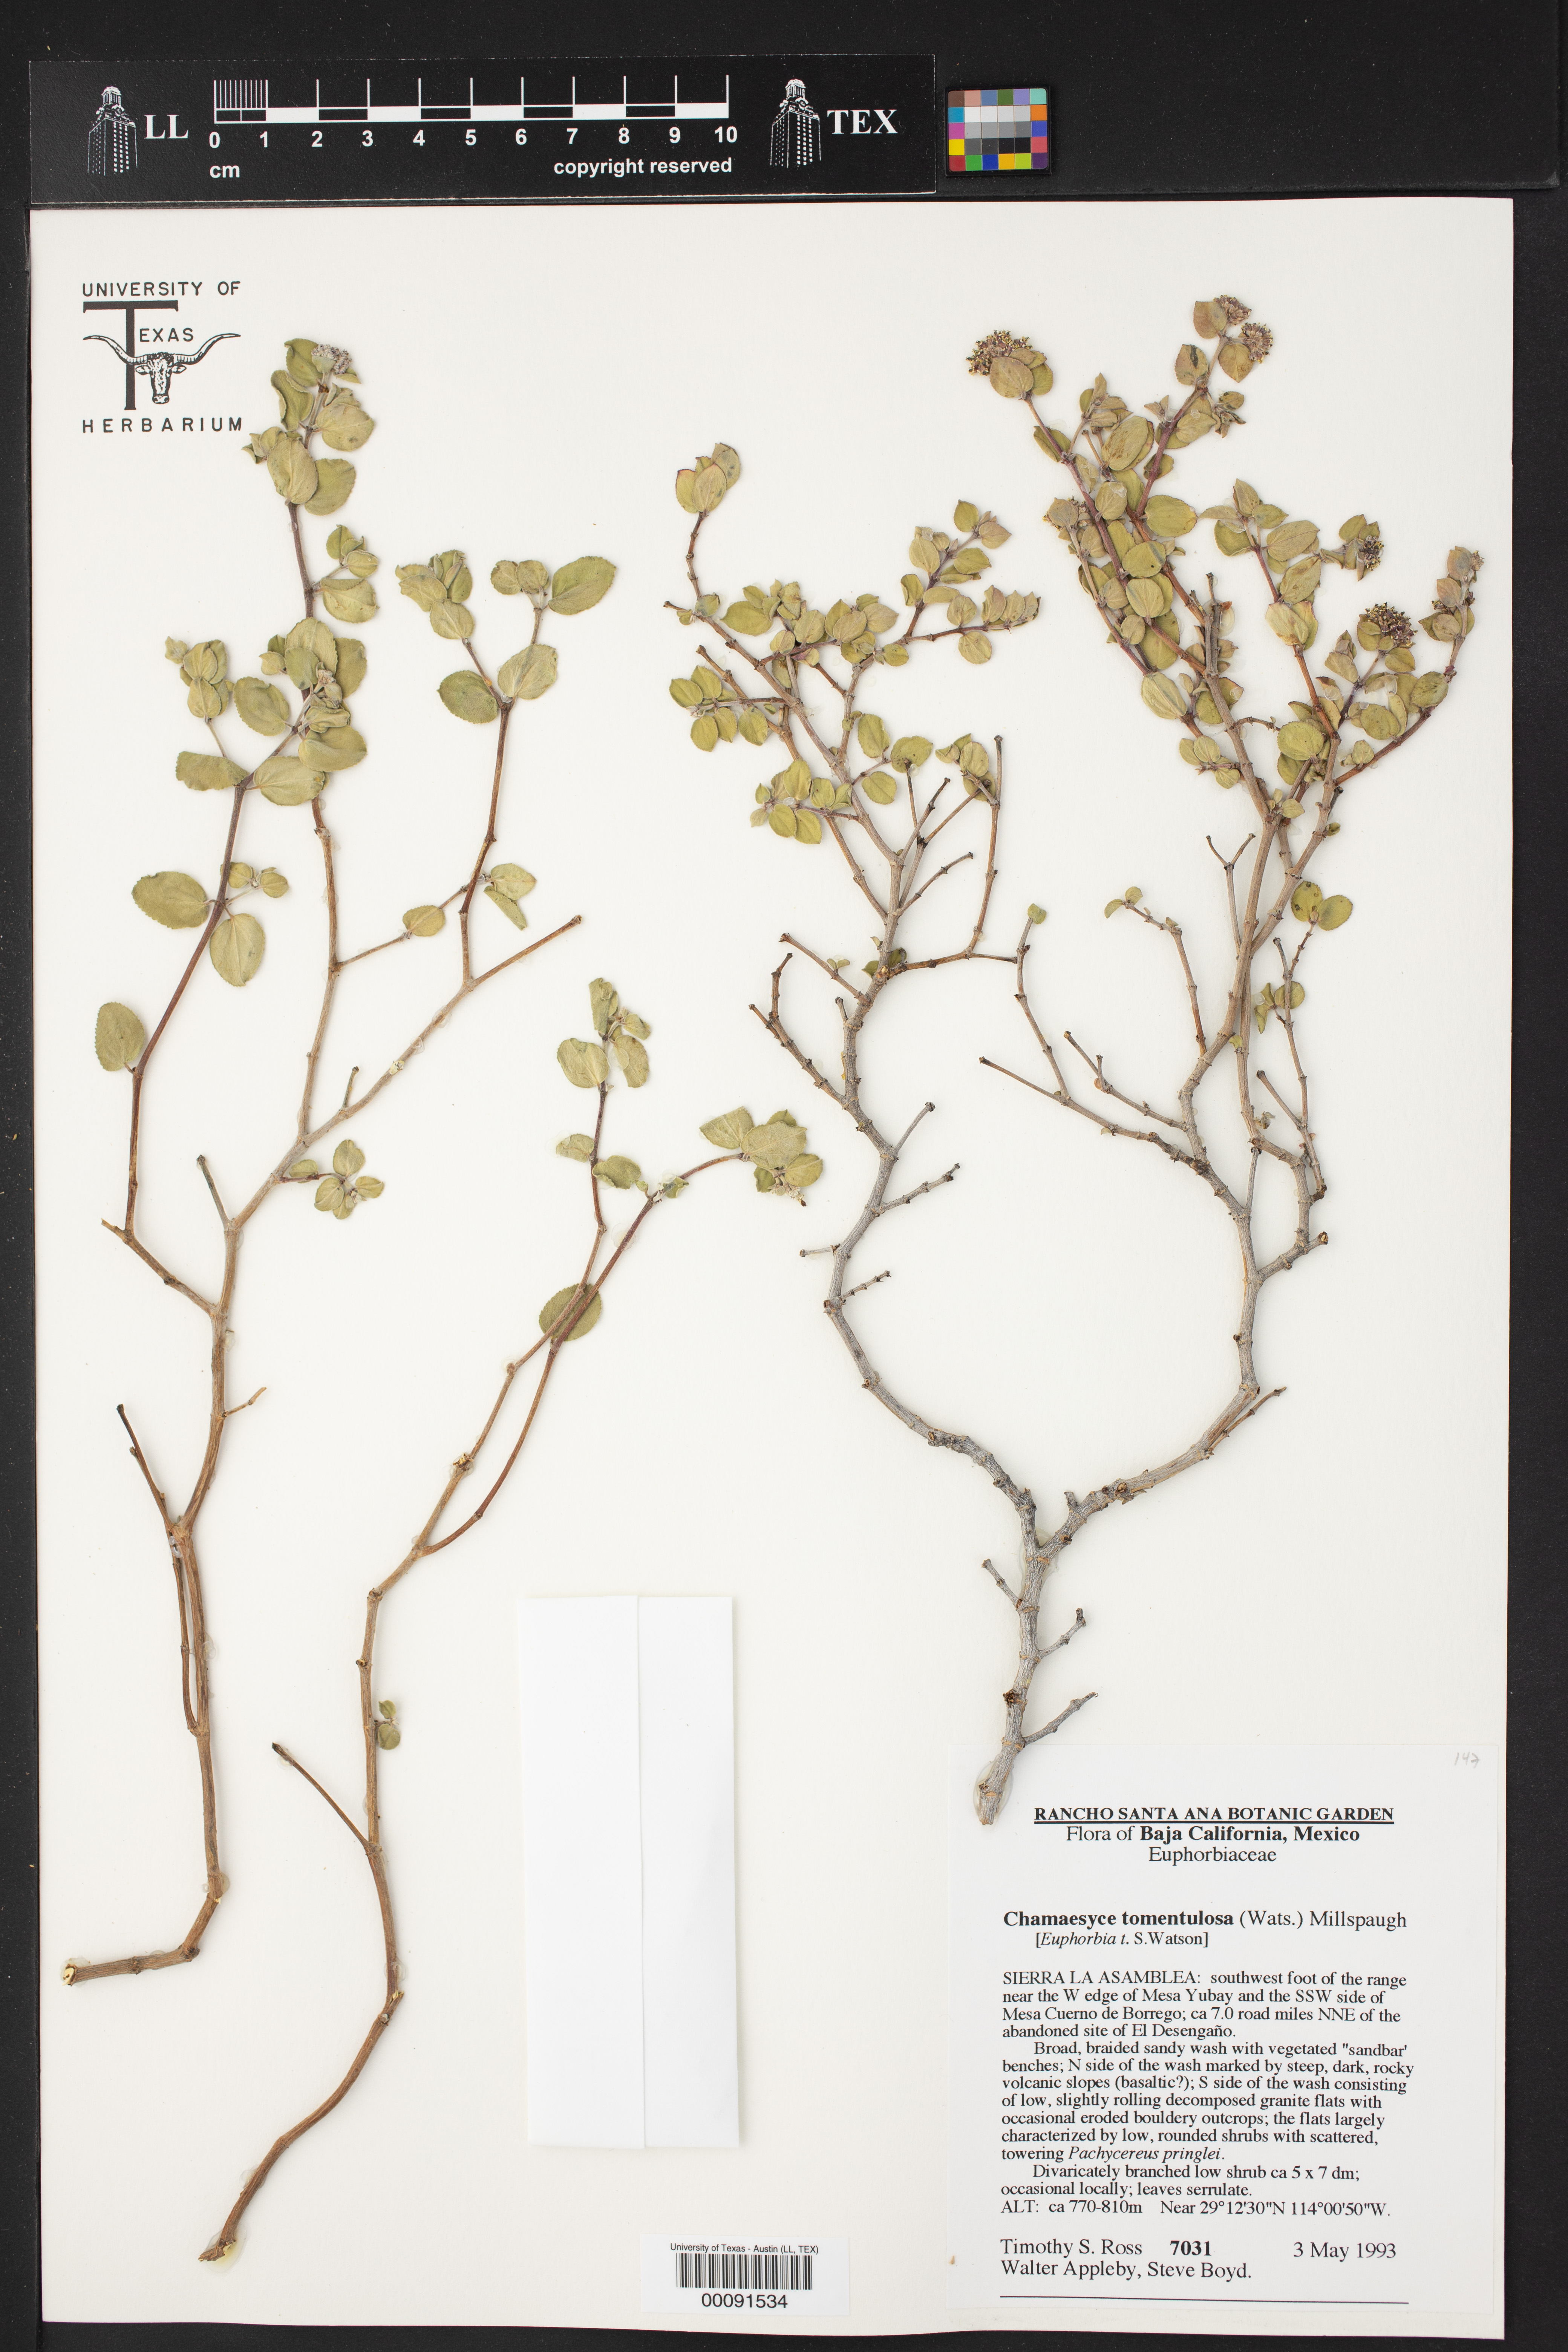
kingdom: Plantae
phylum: Tracheophyta
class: Magnoliopsida
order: Malpighiales
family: Euphorbiaceae
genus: Euphorbia
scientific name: Euphorbia tomentulosa
